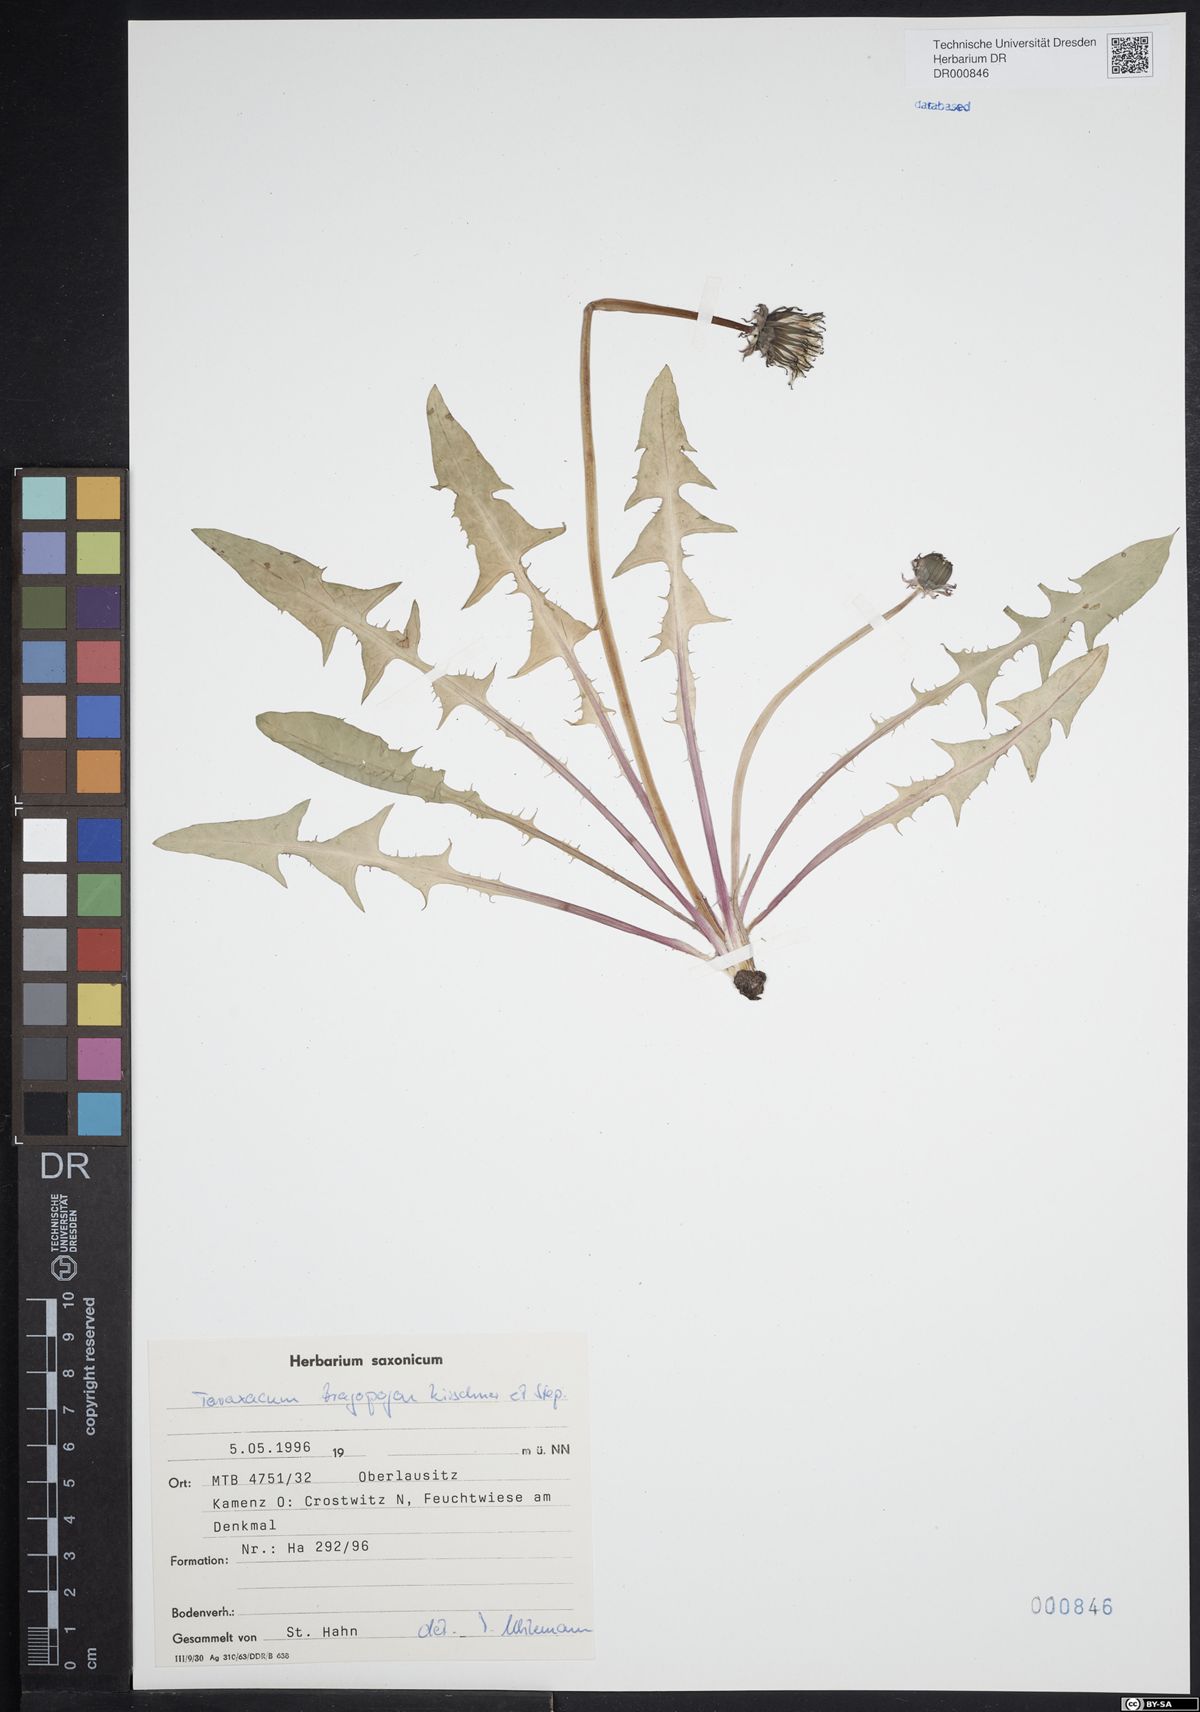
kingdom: Plantae
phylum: Tracheophyta
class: Magnoliopsida
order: Asterales
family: Asteraceae
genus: Taraxacum
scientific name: Taraxacum porrigentilobatum
